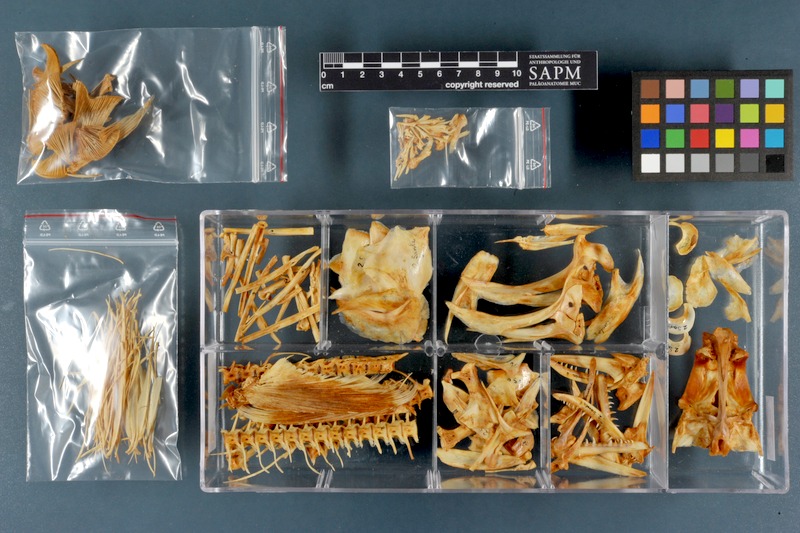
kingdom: Animalia
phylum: Chordata
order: Perciformes
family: Scombridae
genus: Sarda
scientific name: Sarda sarda
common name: Atlantic bonito
